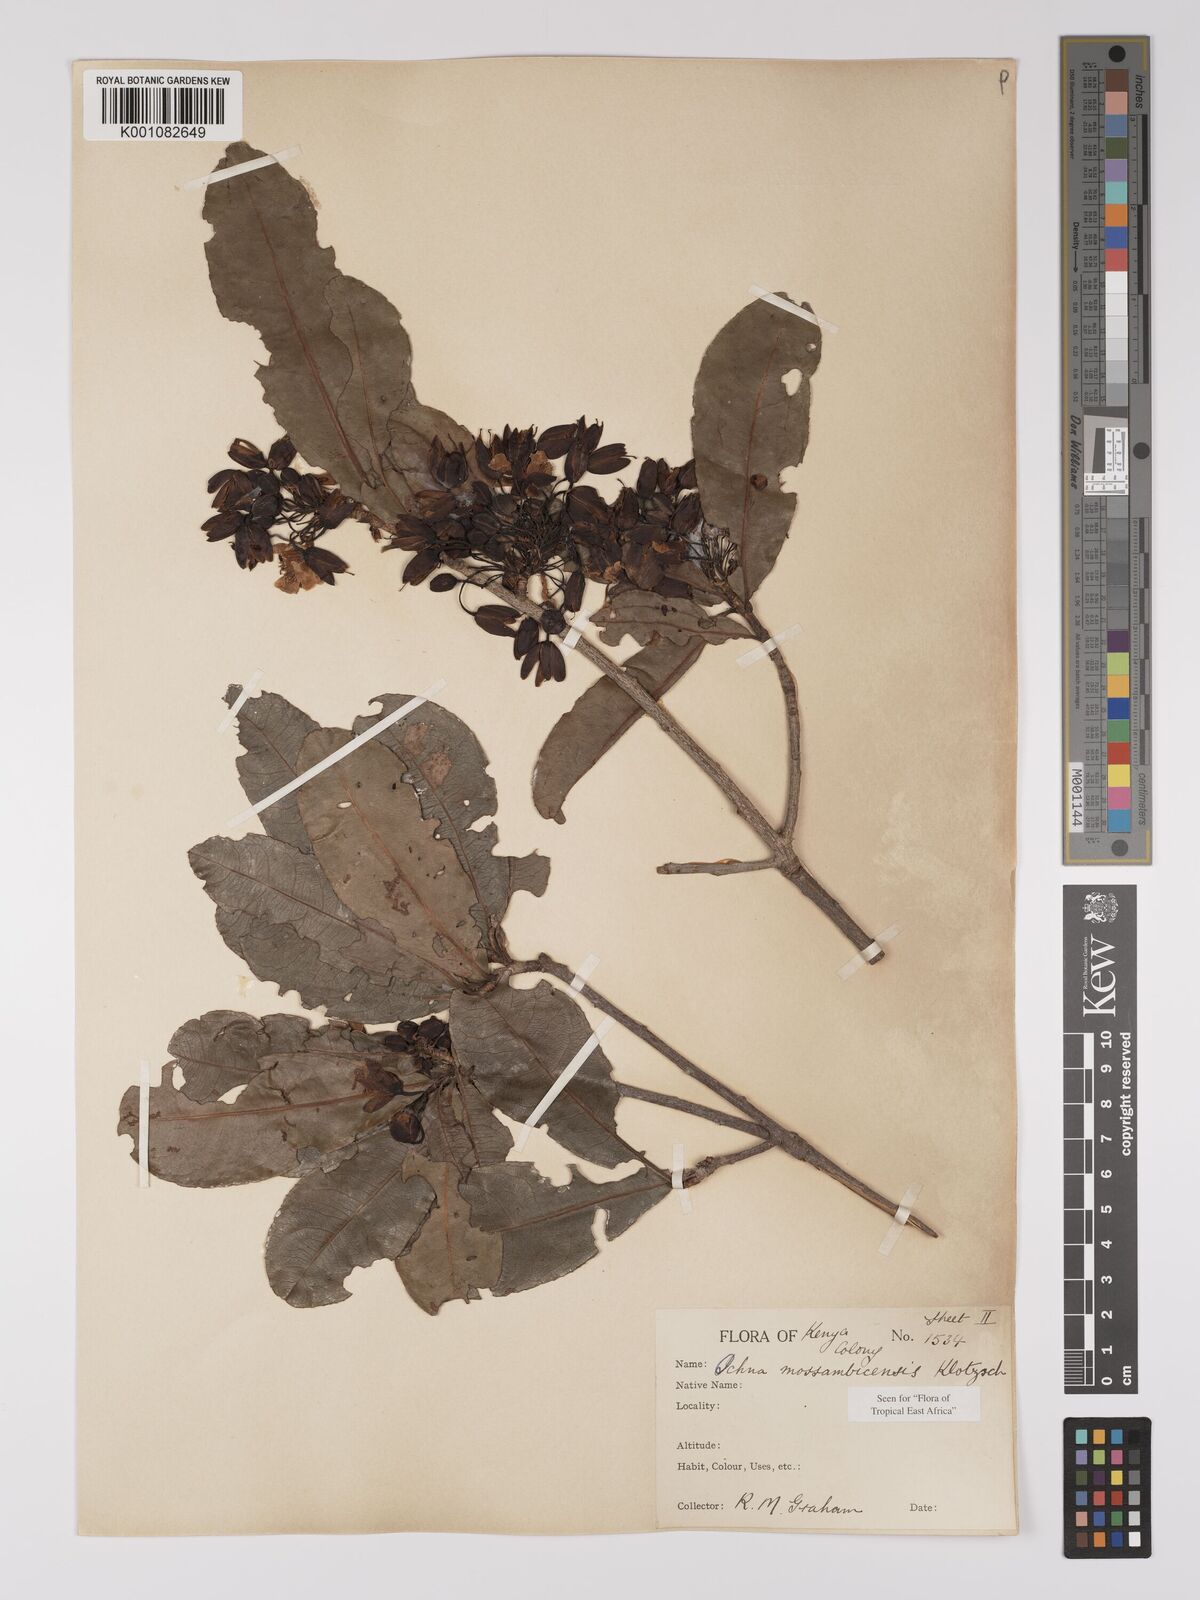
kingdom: Plantae
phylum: Tracheophyta
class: Magnoliopsida
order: Malpighiales
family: Ochnaceae
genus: Ochna
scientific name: Ochna atropurpurea
